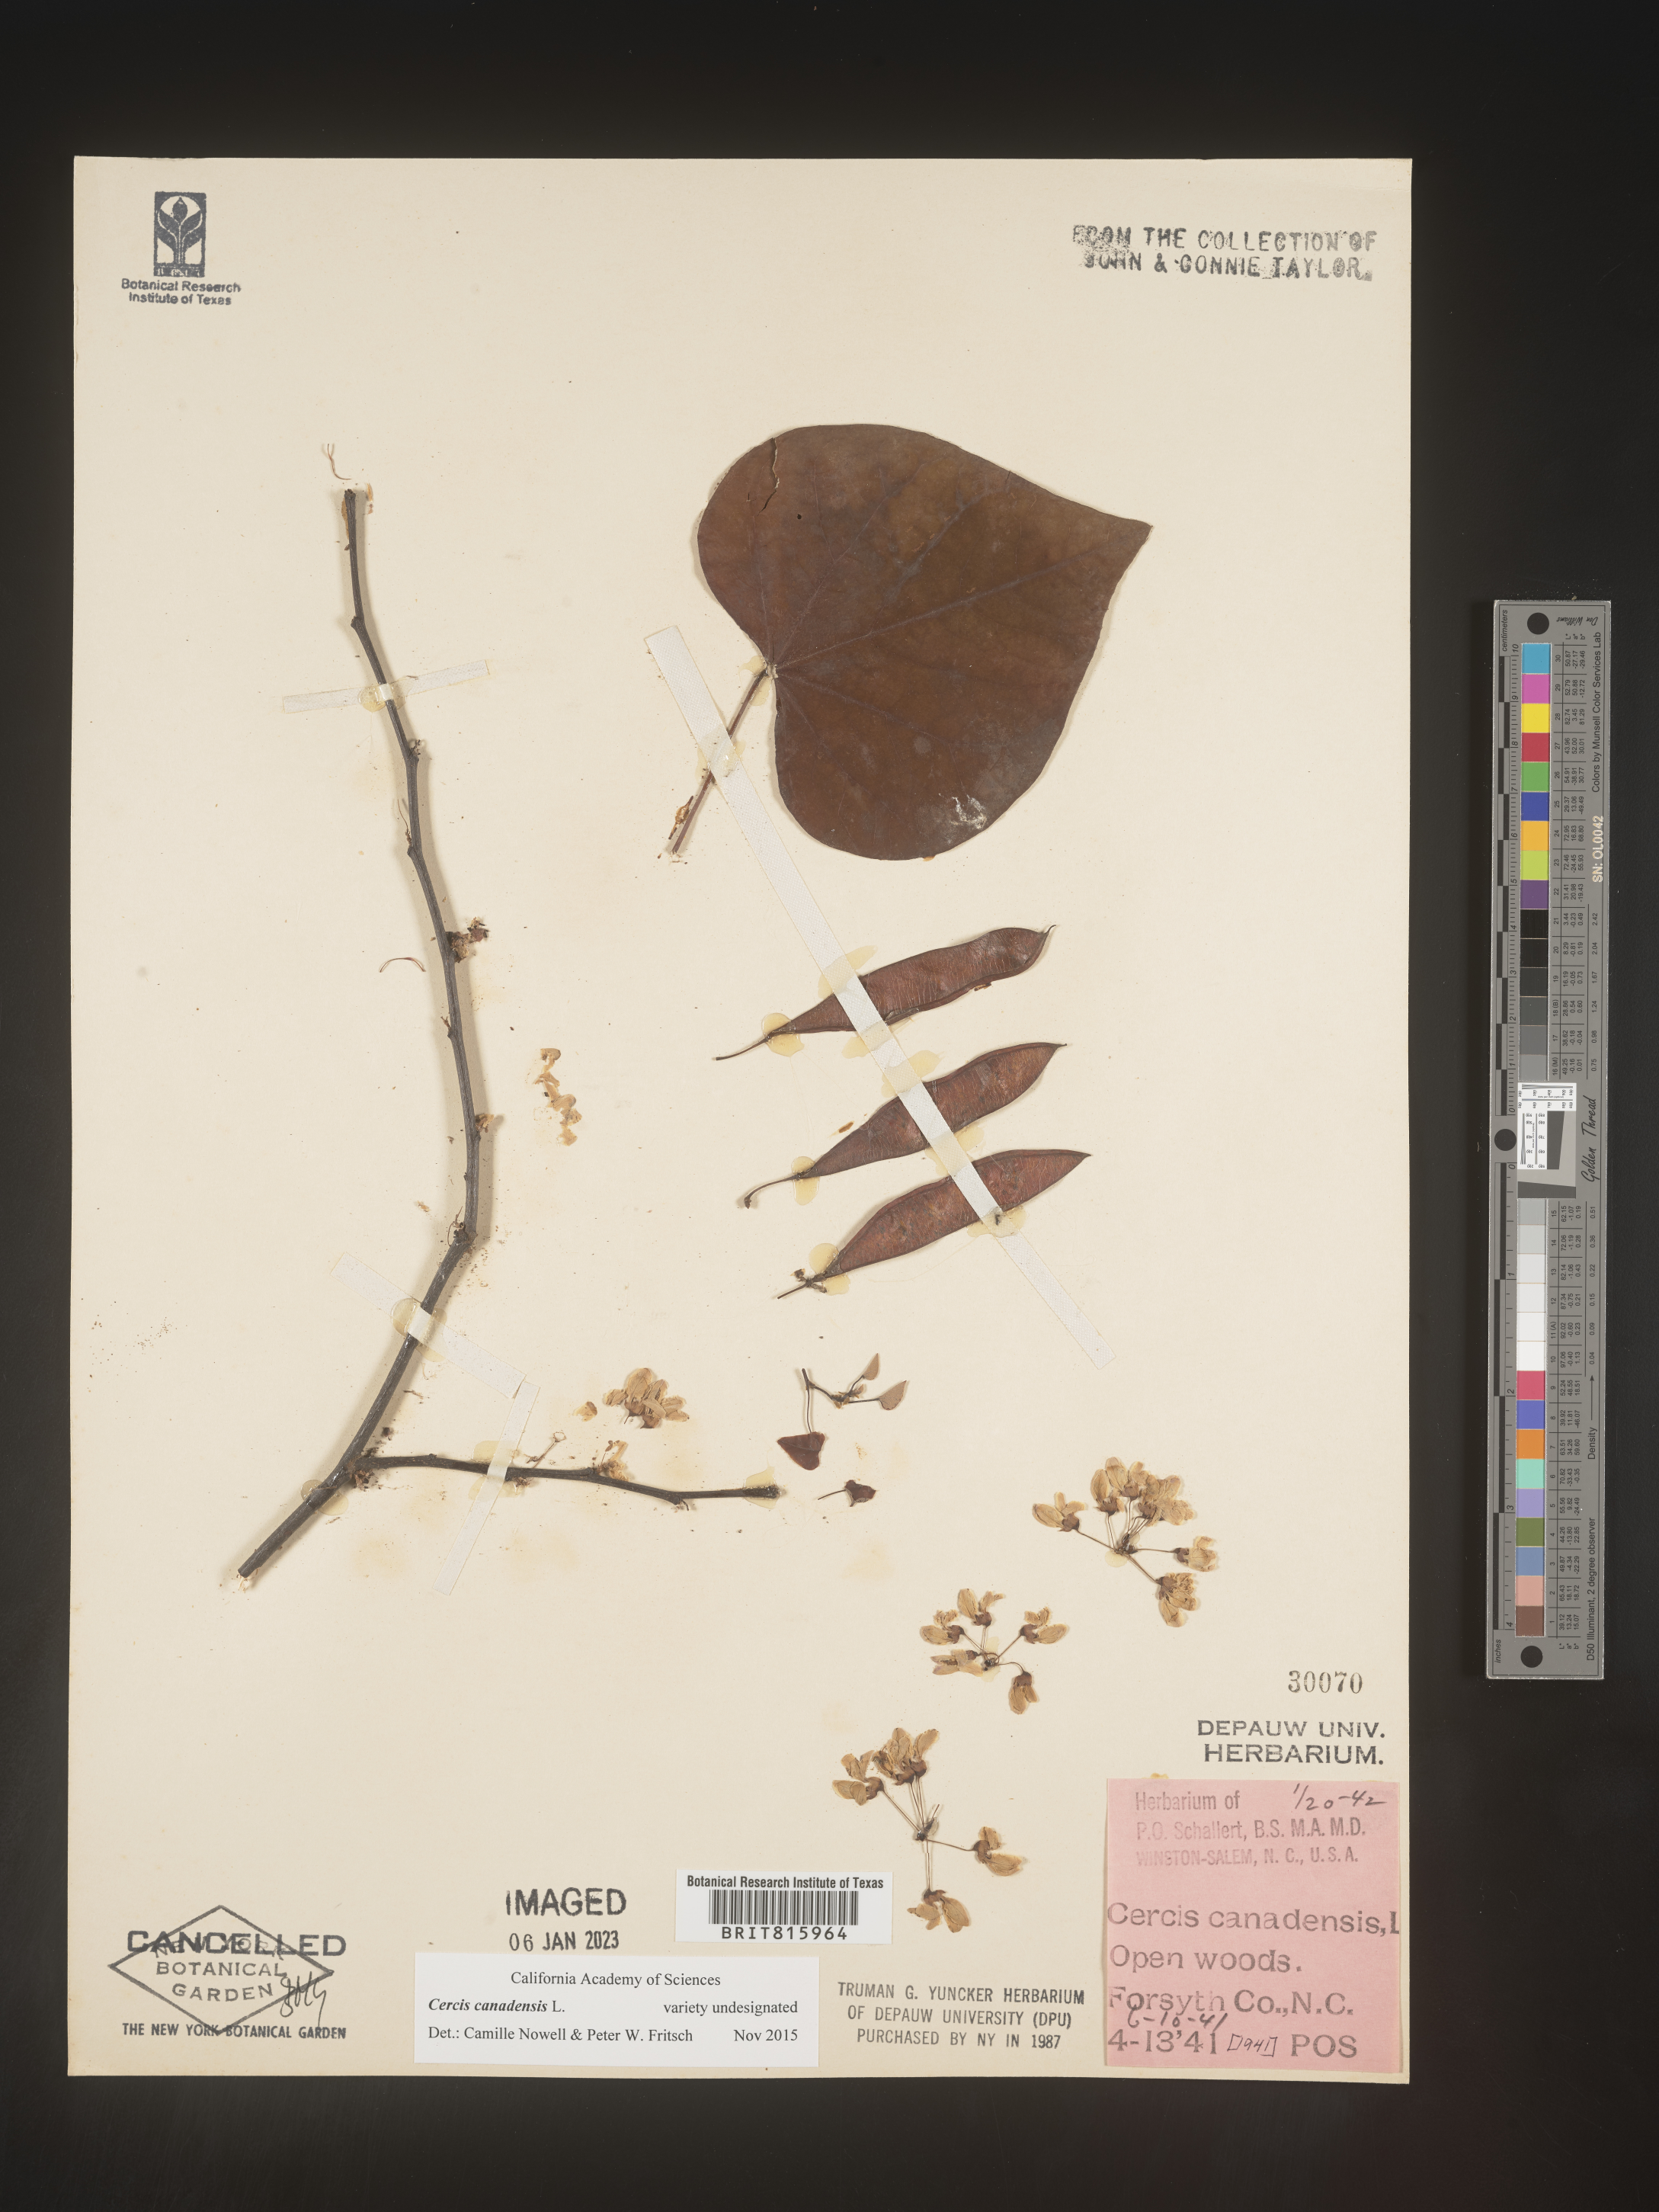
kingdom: Plantae
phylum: Tracheophyta
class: Magnoliopsida
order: Fabales
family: Fabaceae
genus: Cercis
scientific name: Cercis canadensis
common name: Eastern redbud
